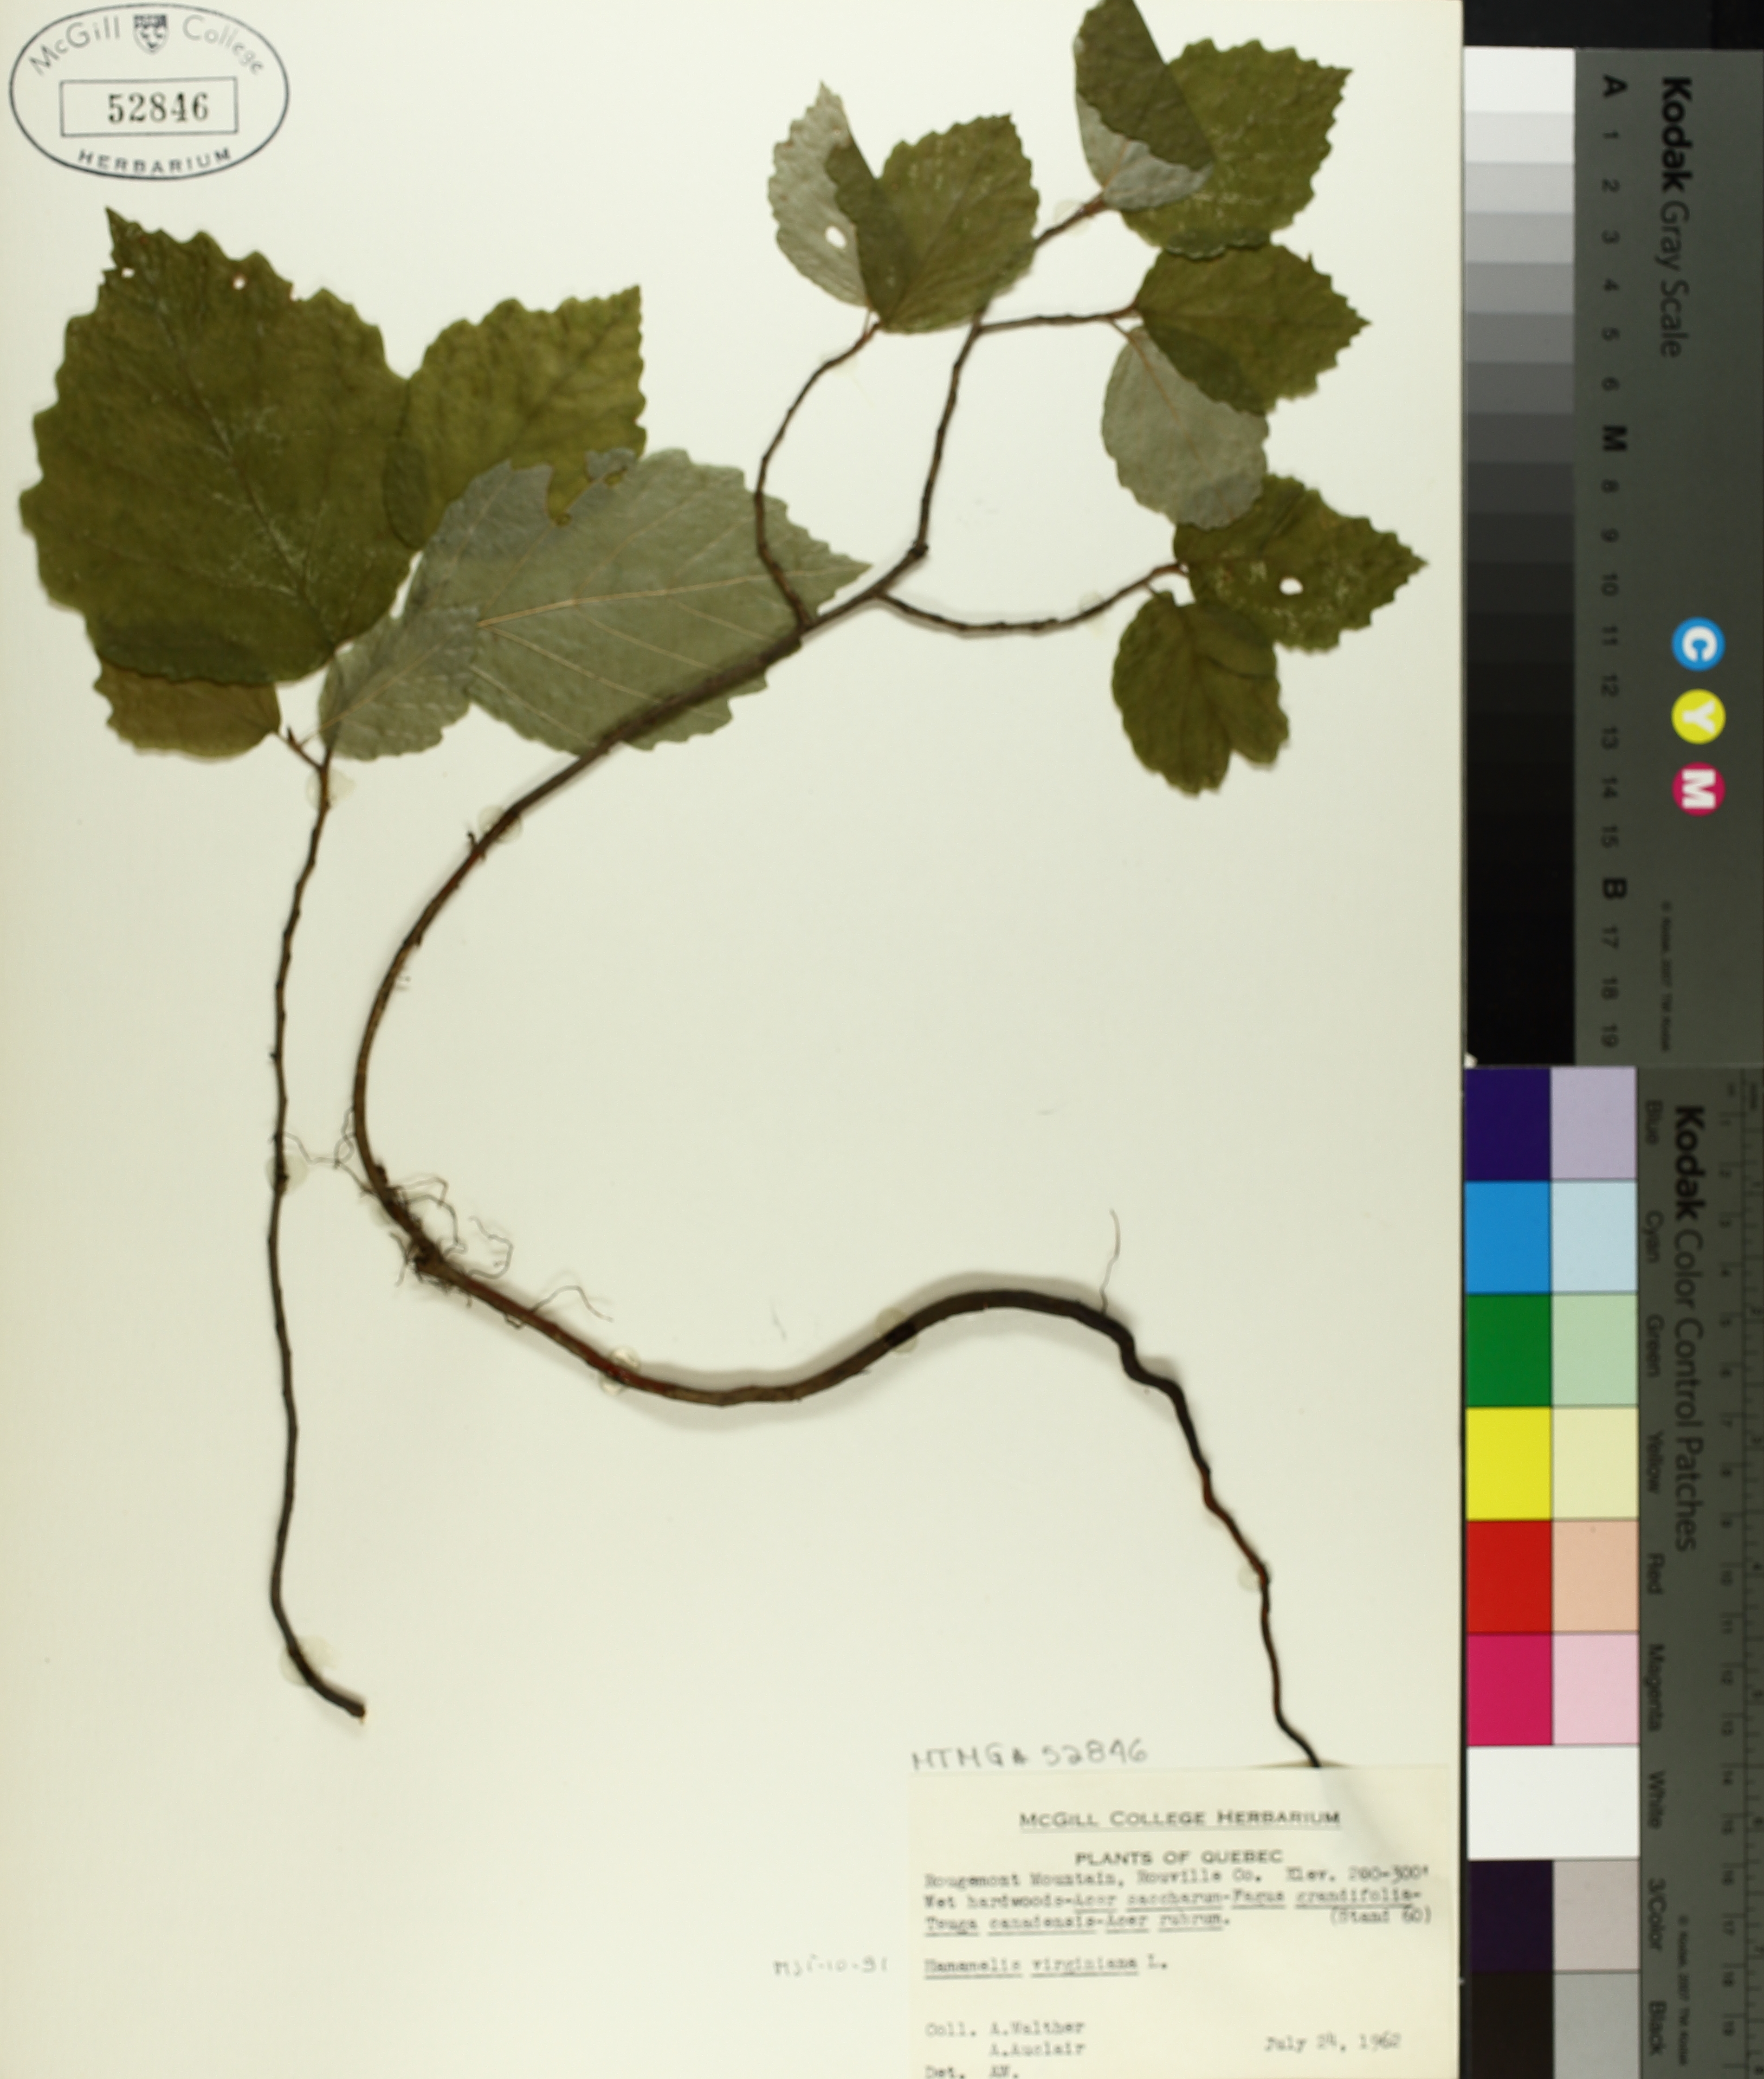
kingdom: Plantae
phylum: Tracheophyta
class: Magnoliopsida
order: Saxifragales
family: Hamamelidaceae
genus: Hamamelis
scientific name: Hamamelis virginiana
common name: Witch-hazel
